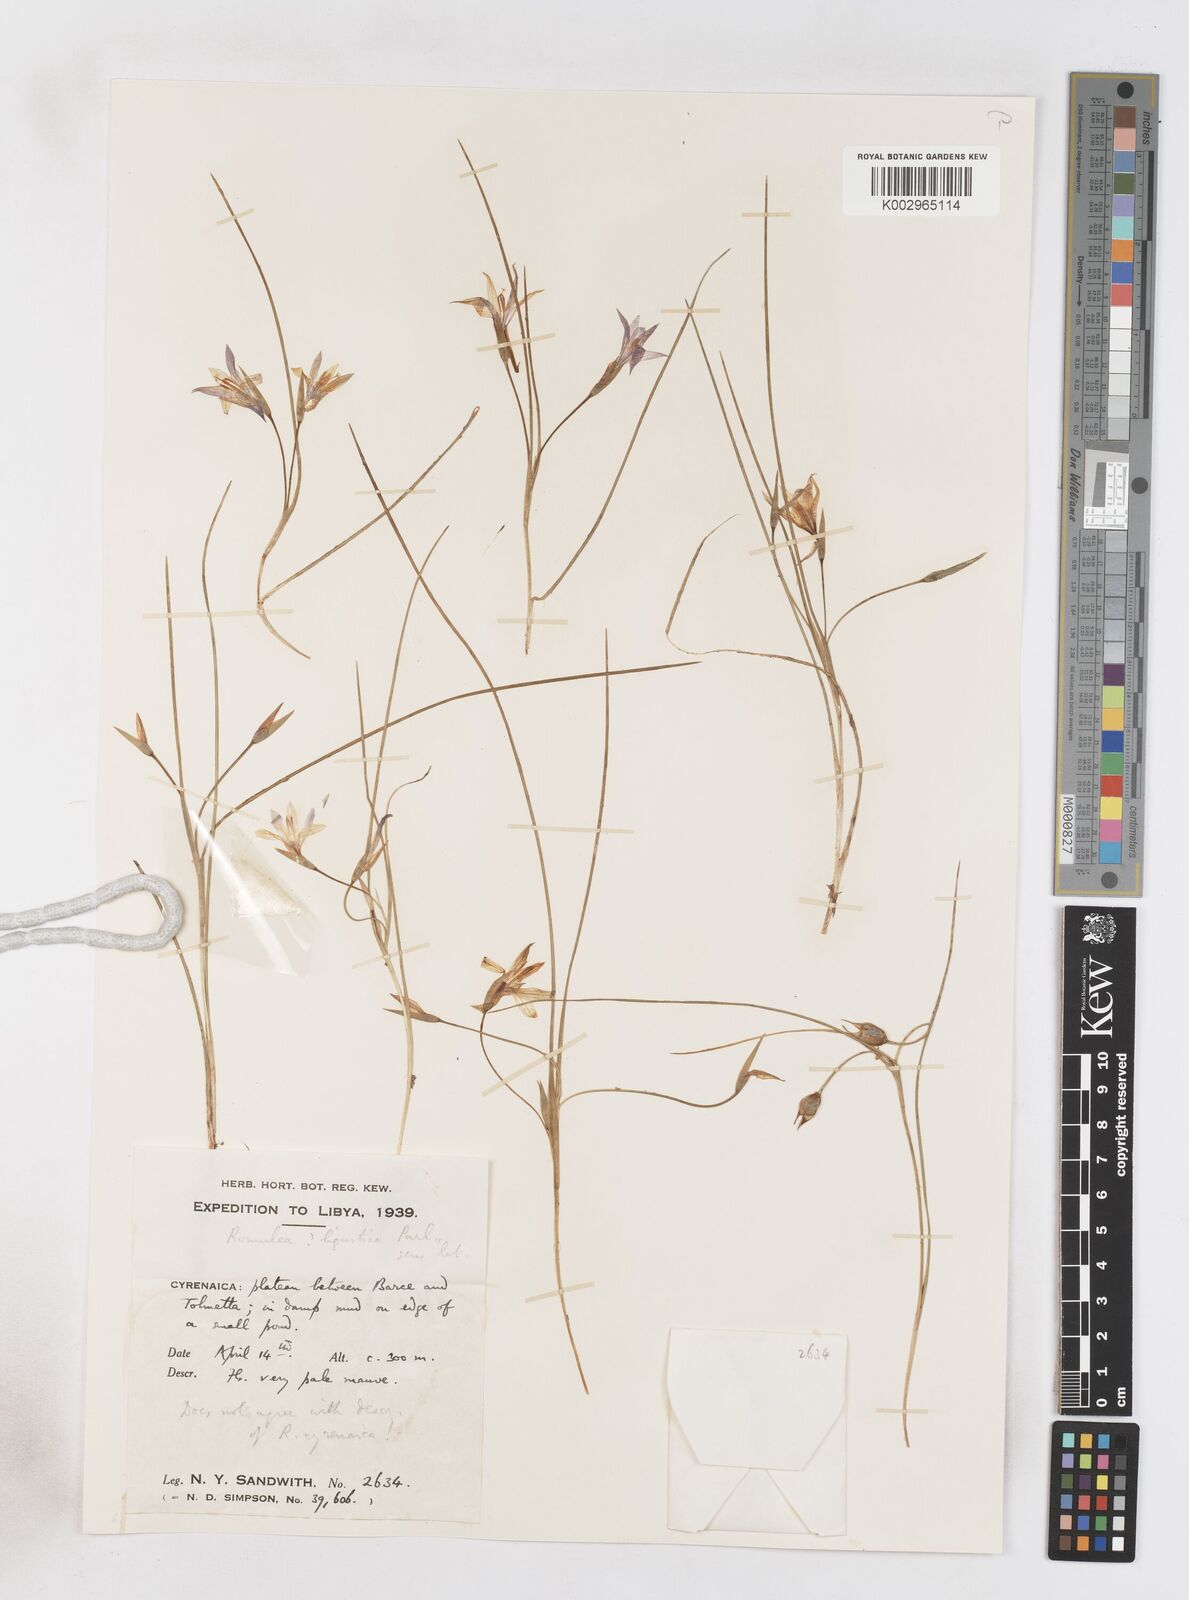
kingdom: Plantae
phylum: Tracheophyta
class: Liliopsida
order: Asparagales
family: Iridaceae
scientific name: Iridaceae
